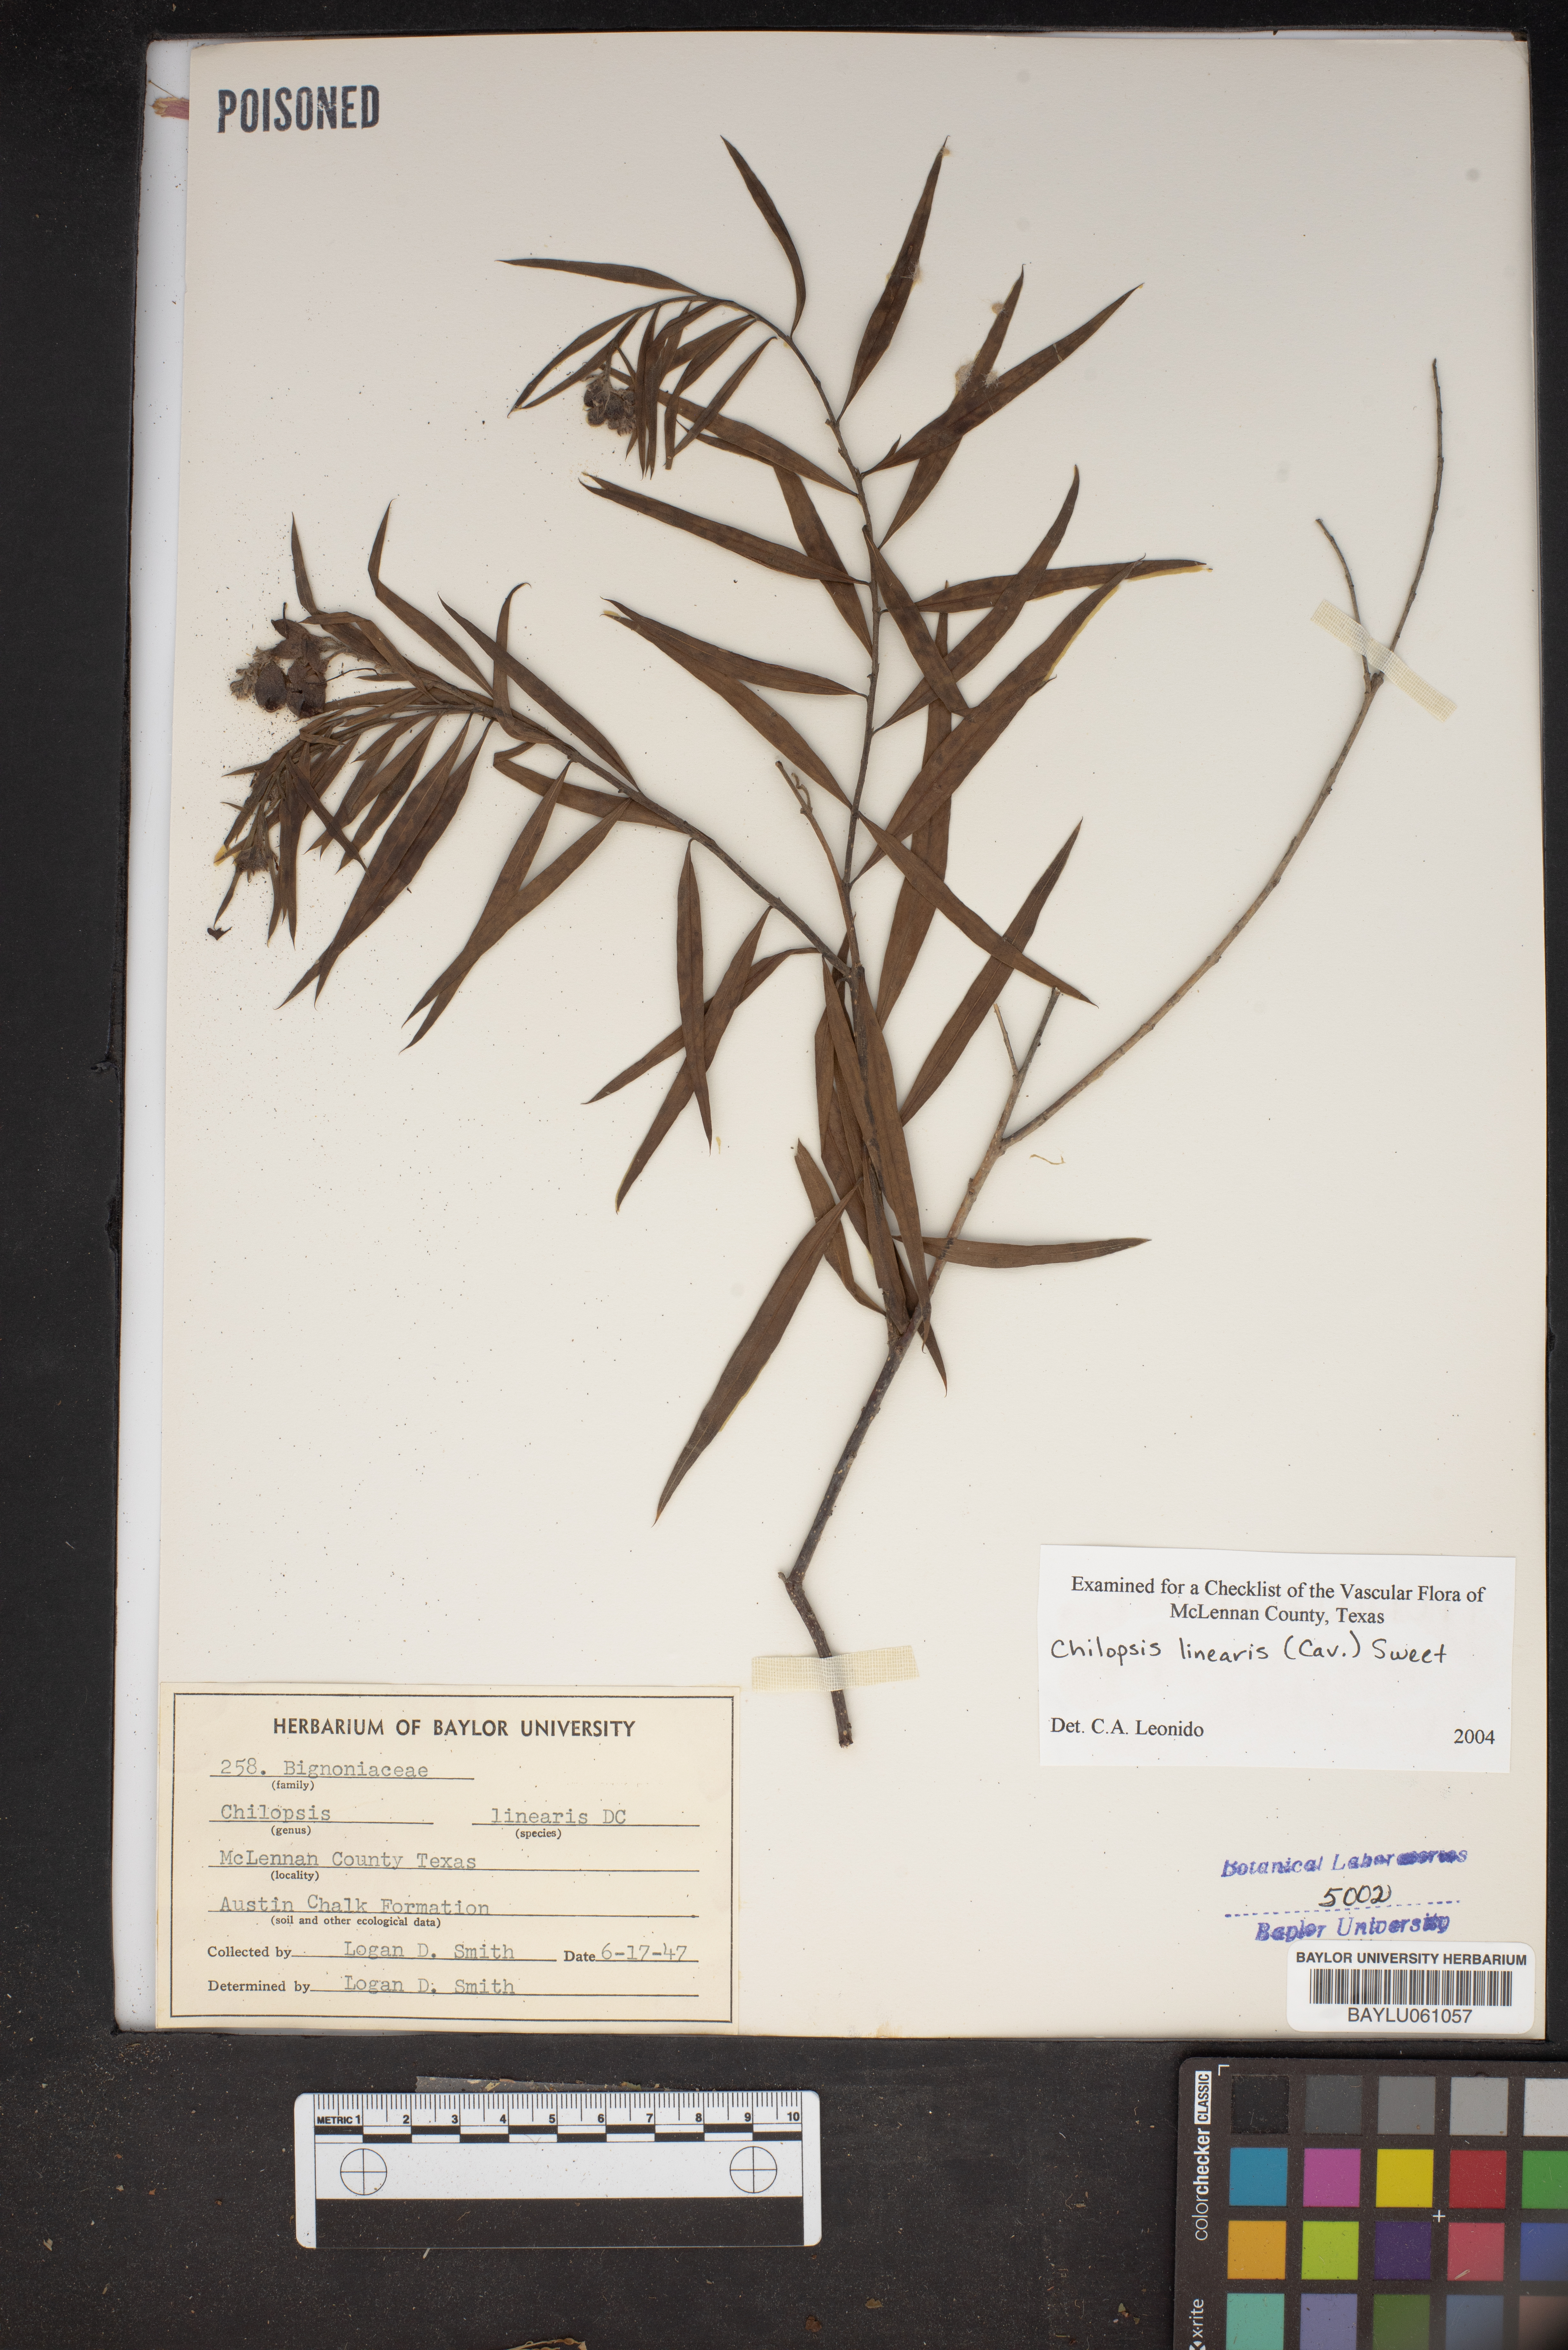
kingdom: Plantae
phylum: Tracheophyta
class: Magnoliopsida
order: Lamiales
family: Bignoniaceae
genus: Chilopsis
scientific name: Chilopsis linearis
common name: Desert-willow
